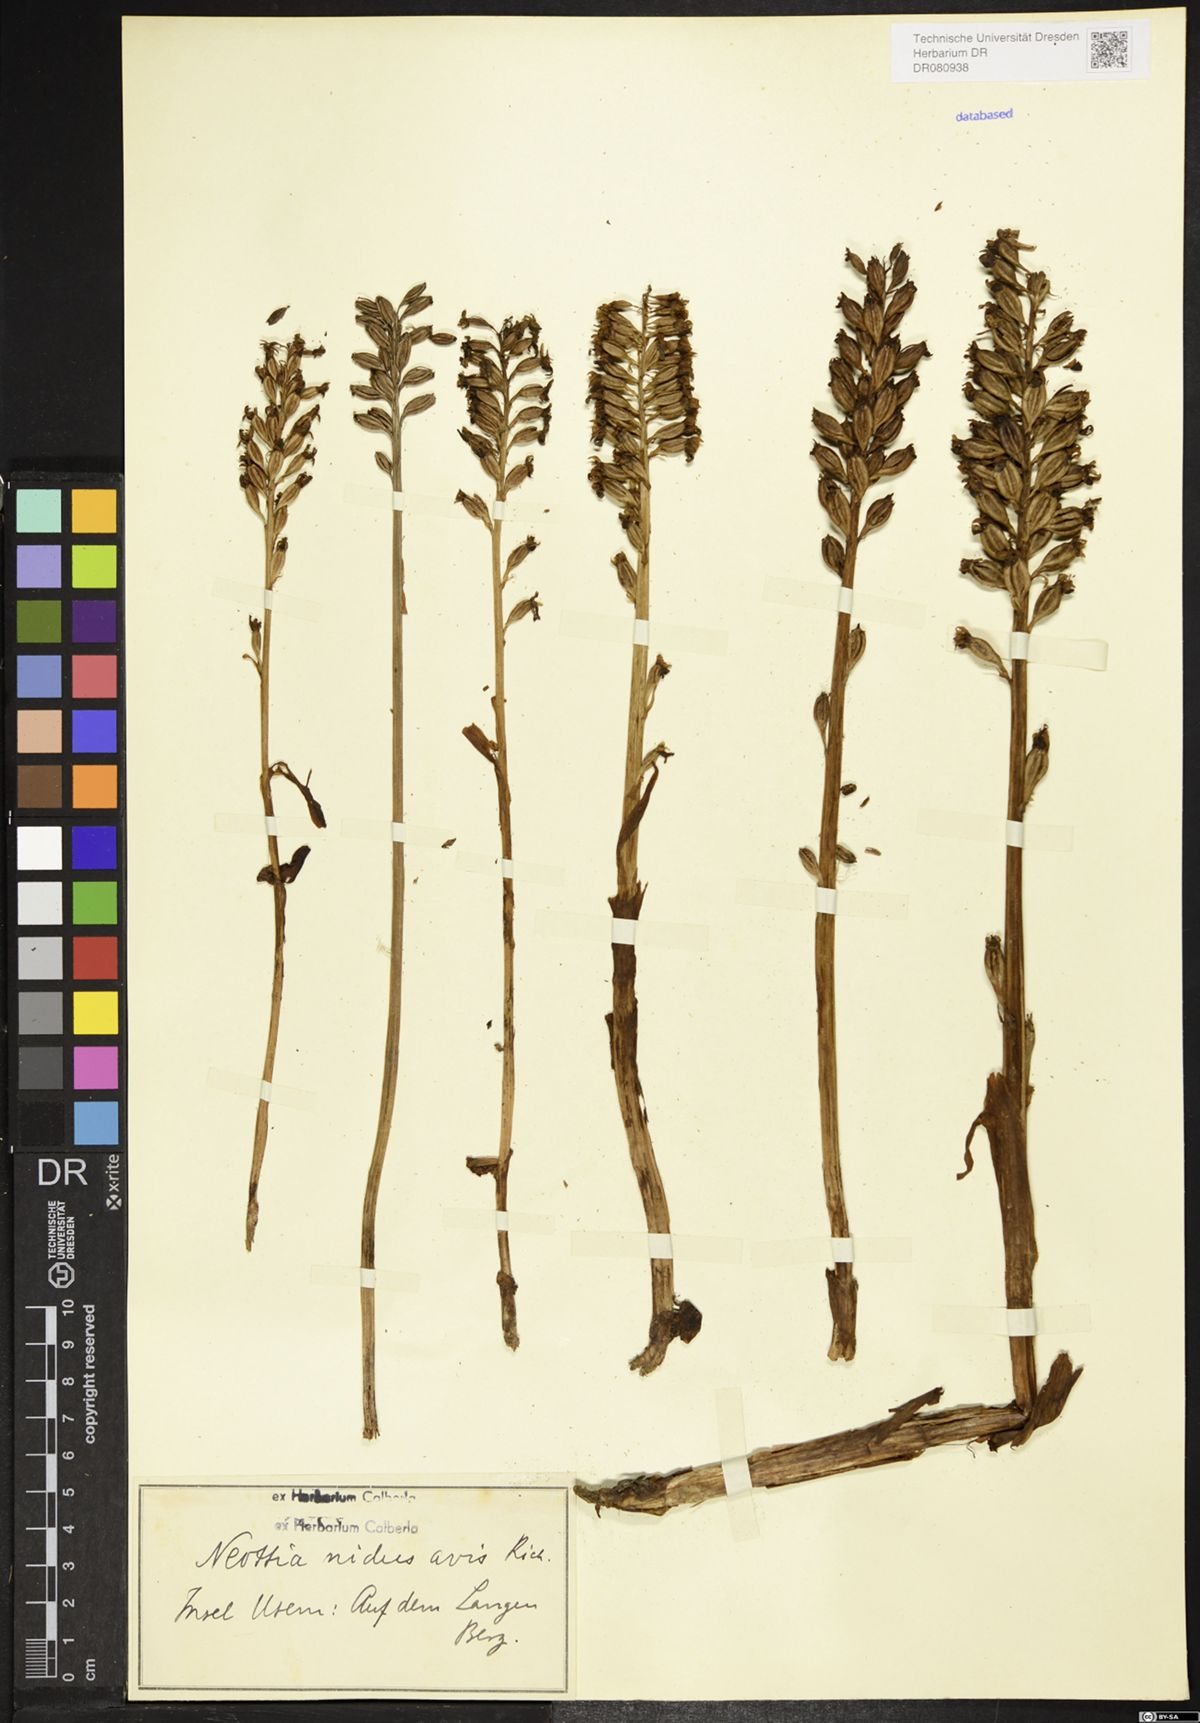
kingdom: Plantae
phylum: Tracheophyta
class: Liliopsida
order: Asparagales
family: Orchidaceae
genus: Neottia
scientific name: Neottia nidus-avis
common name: Bird's-nest orchid
